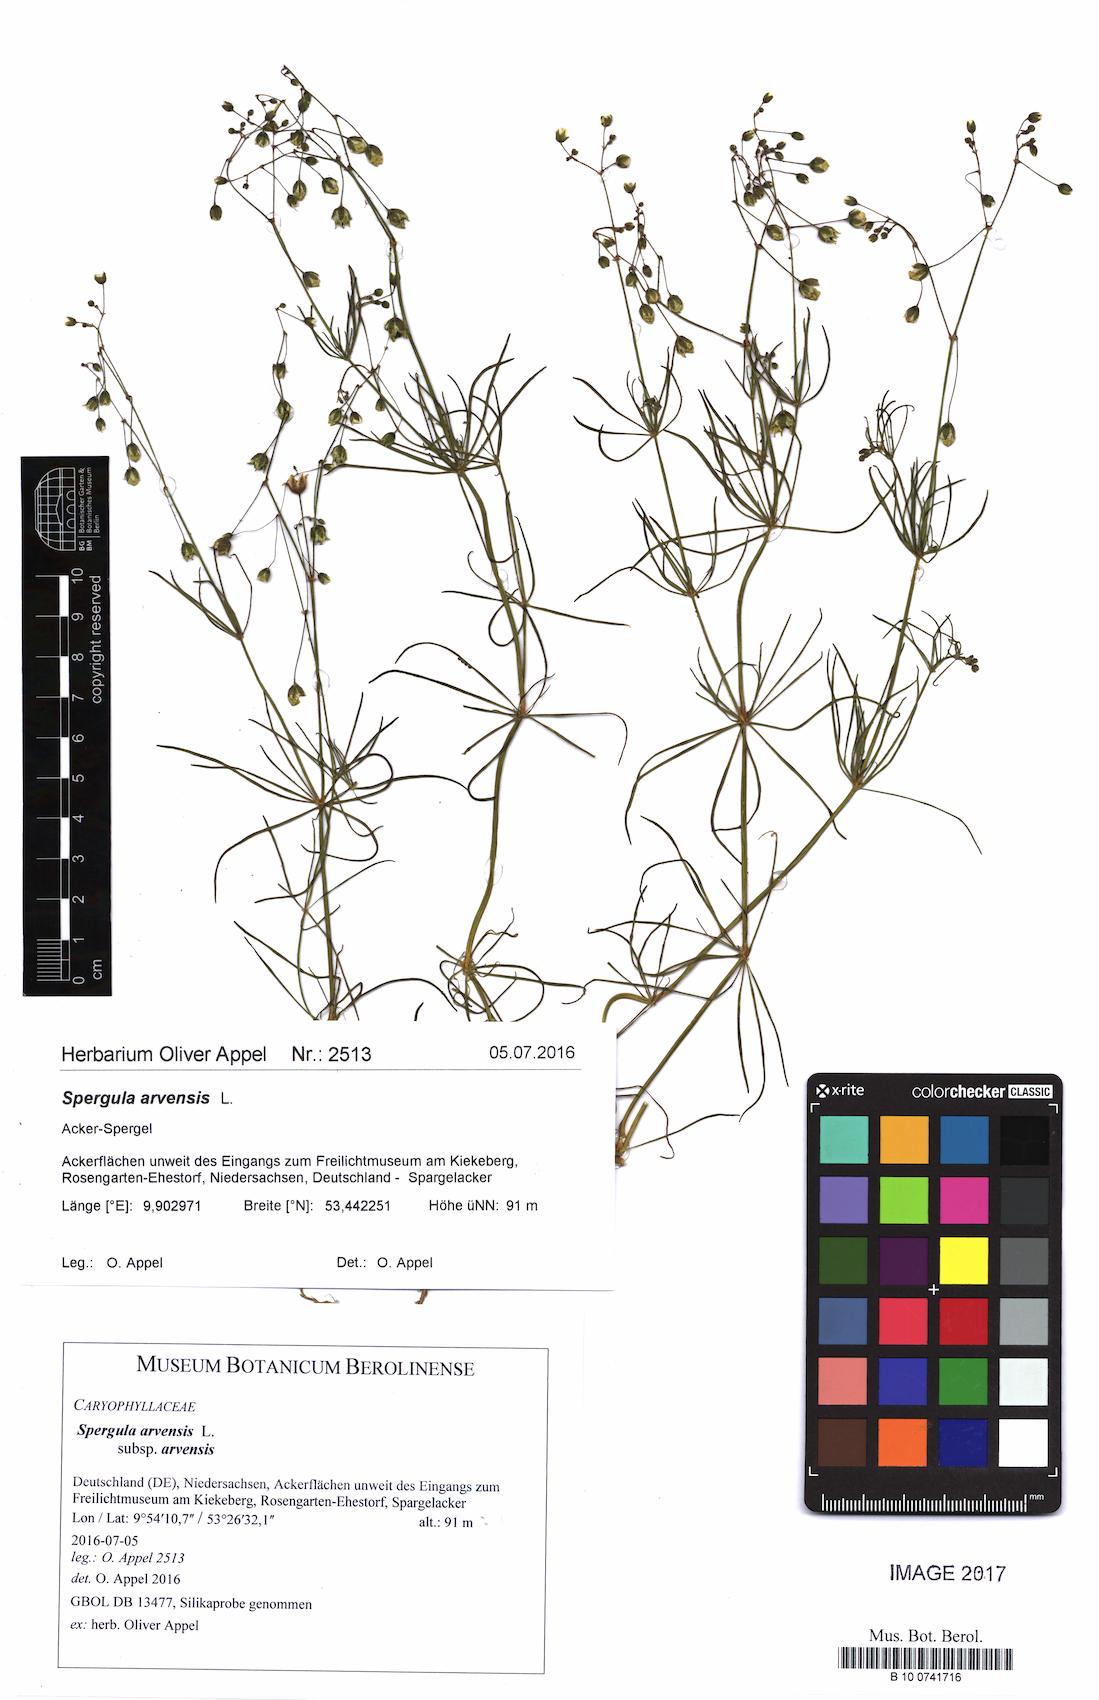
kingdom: Plantae
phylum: Tracheophyta
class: Magnoliopsida
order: Caryophyllales
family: Caryophyllaceae
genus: Spergula
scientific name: Spergula arvensis
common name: Corn spurrey
